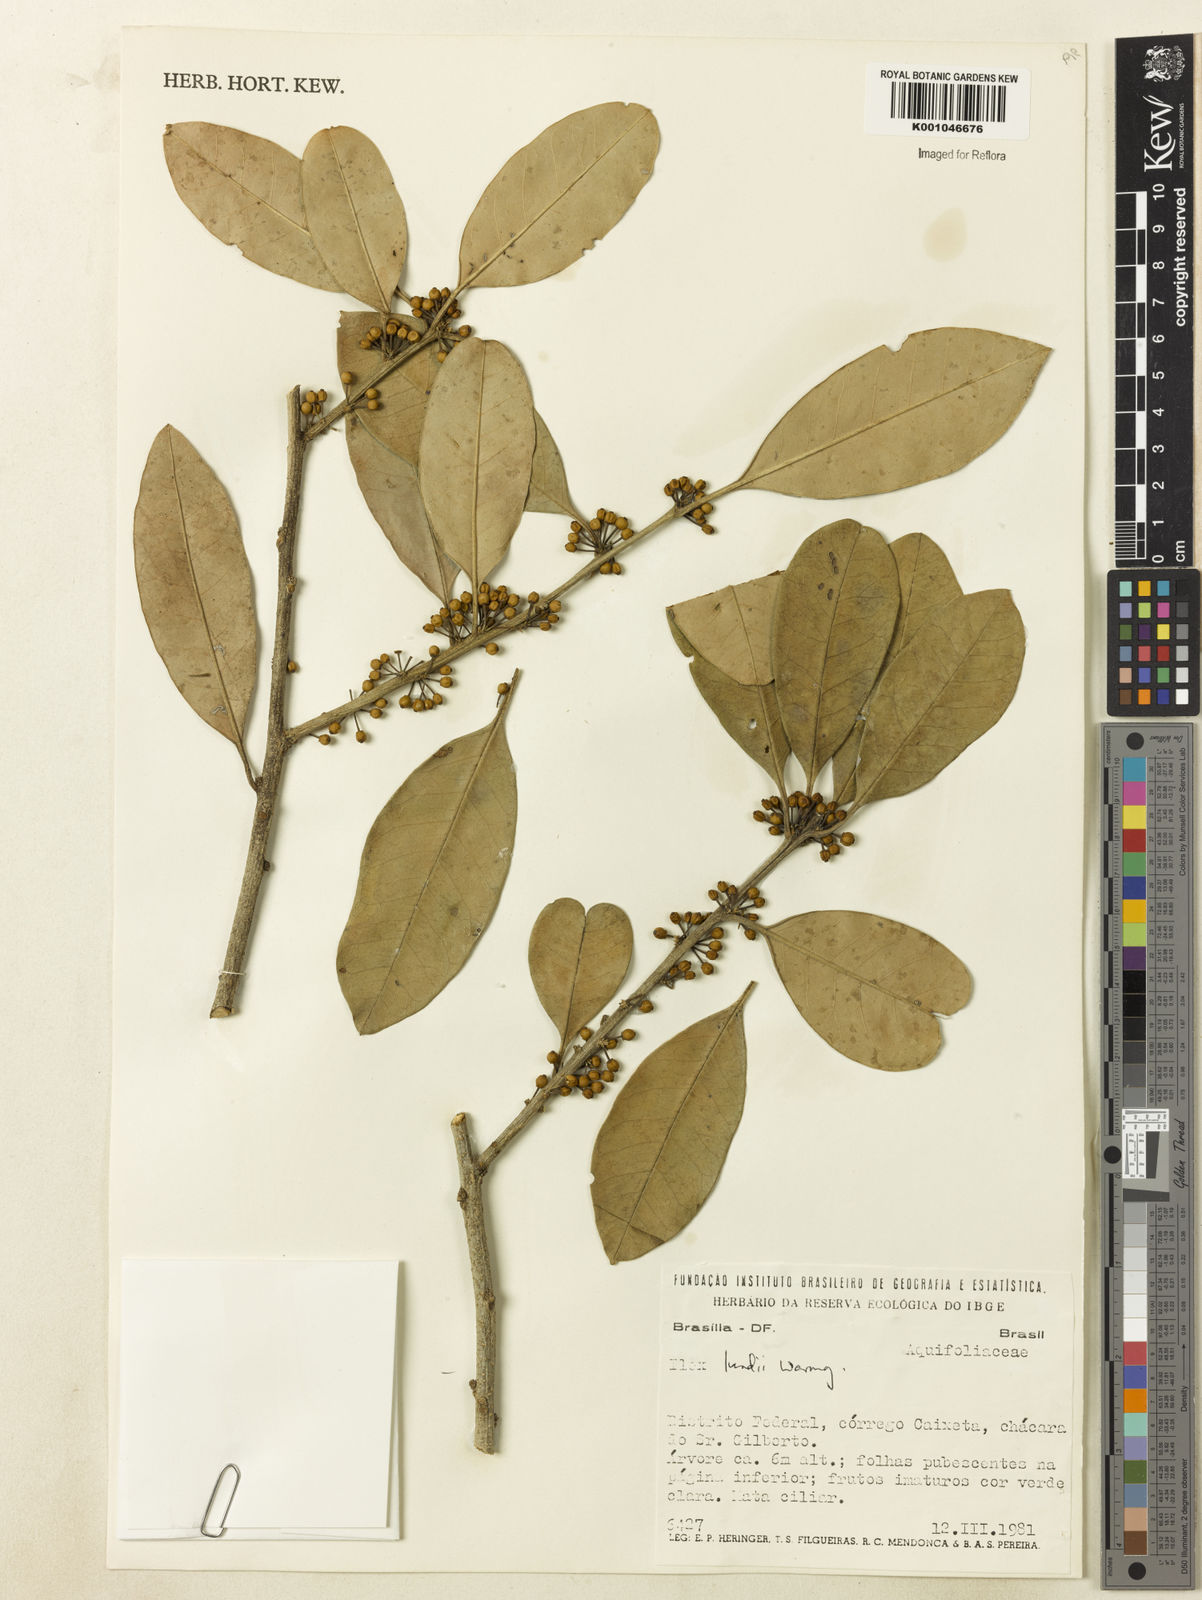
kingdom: Plantae
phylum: Tracheophyta
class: Magnoliopsida
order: Aquifoliales
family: Aquifoliaceae
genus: Ilex
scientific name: Ilex lundii
